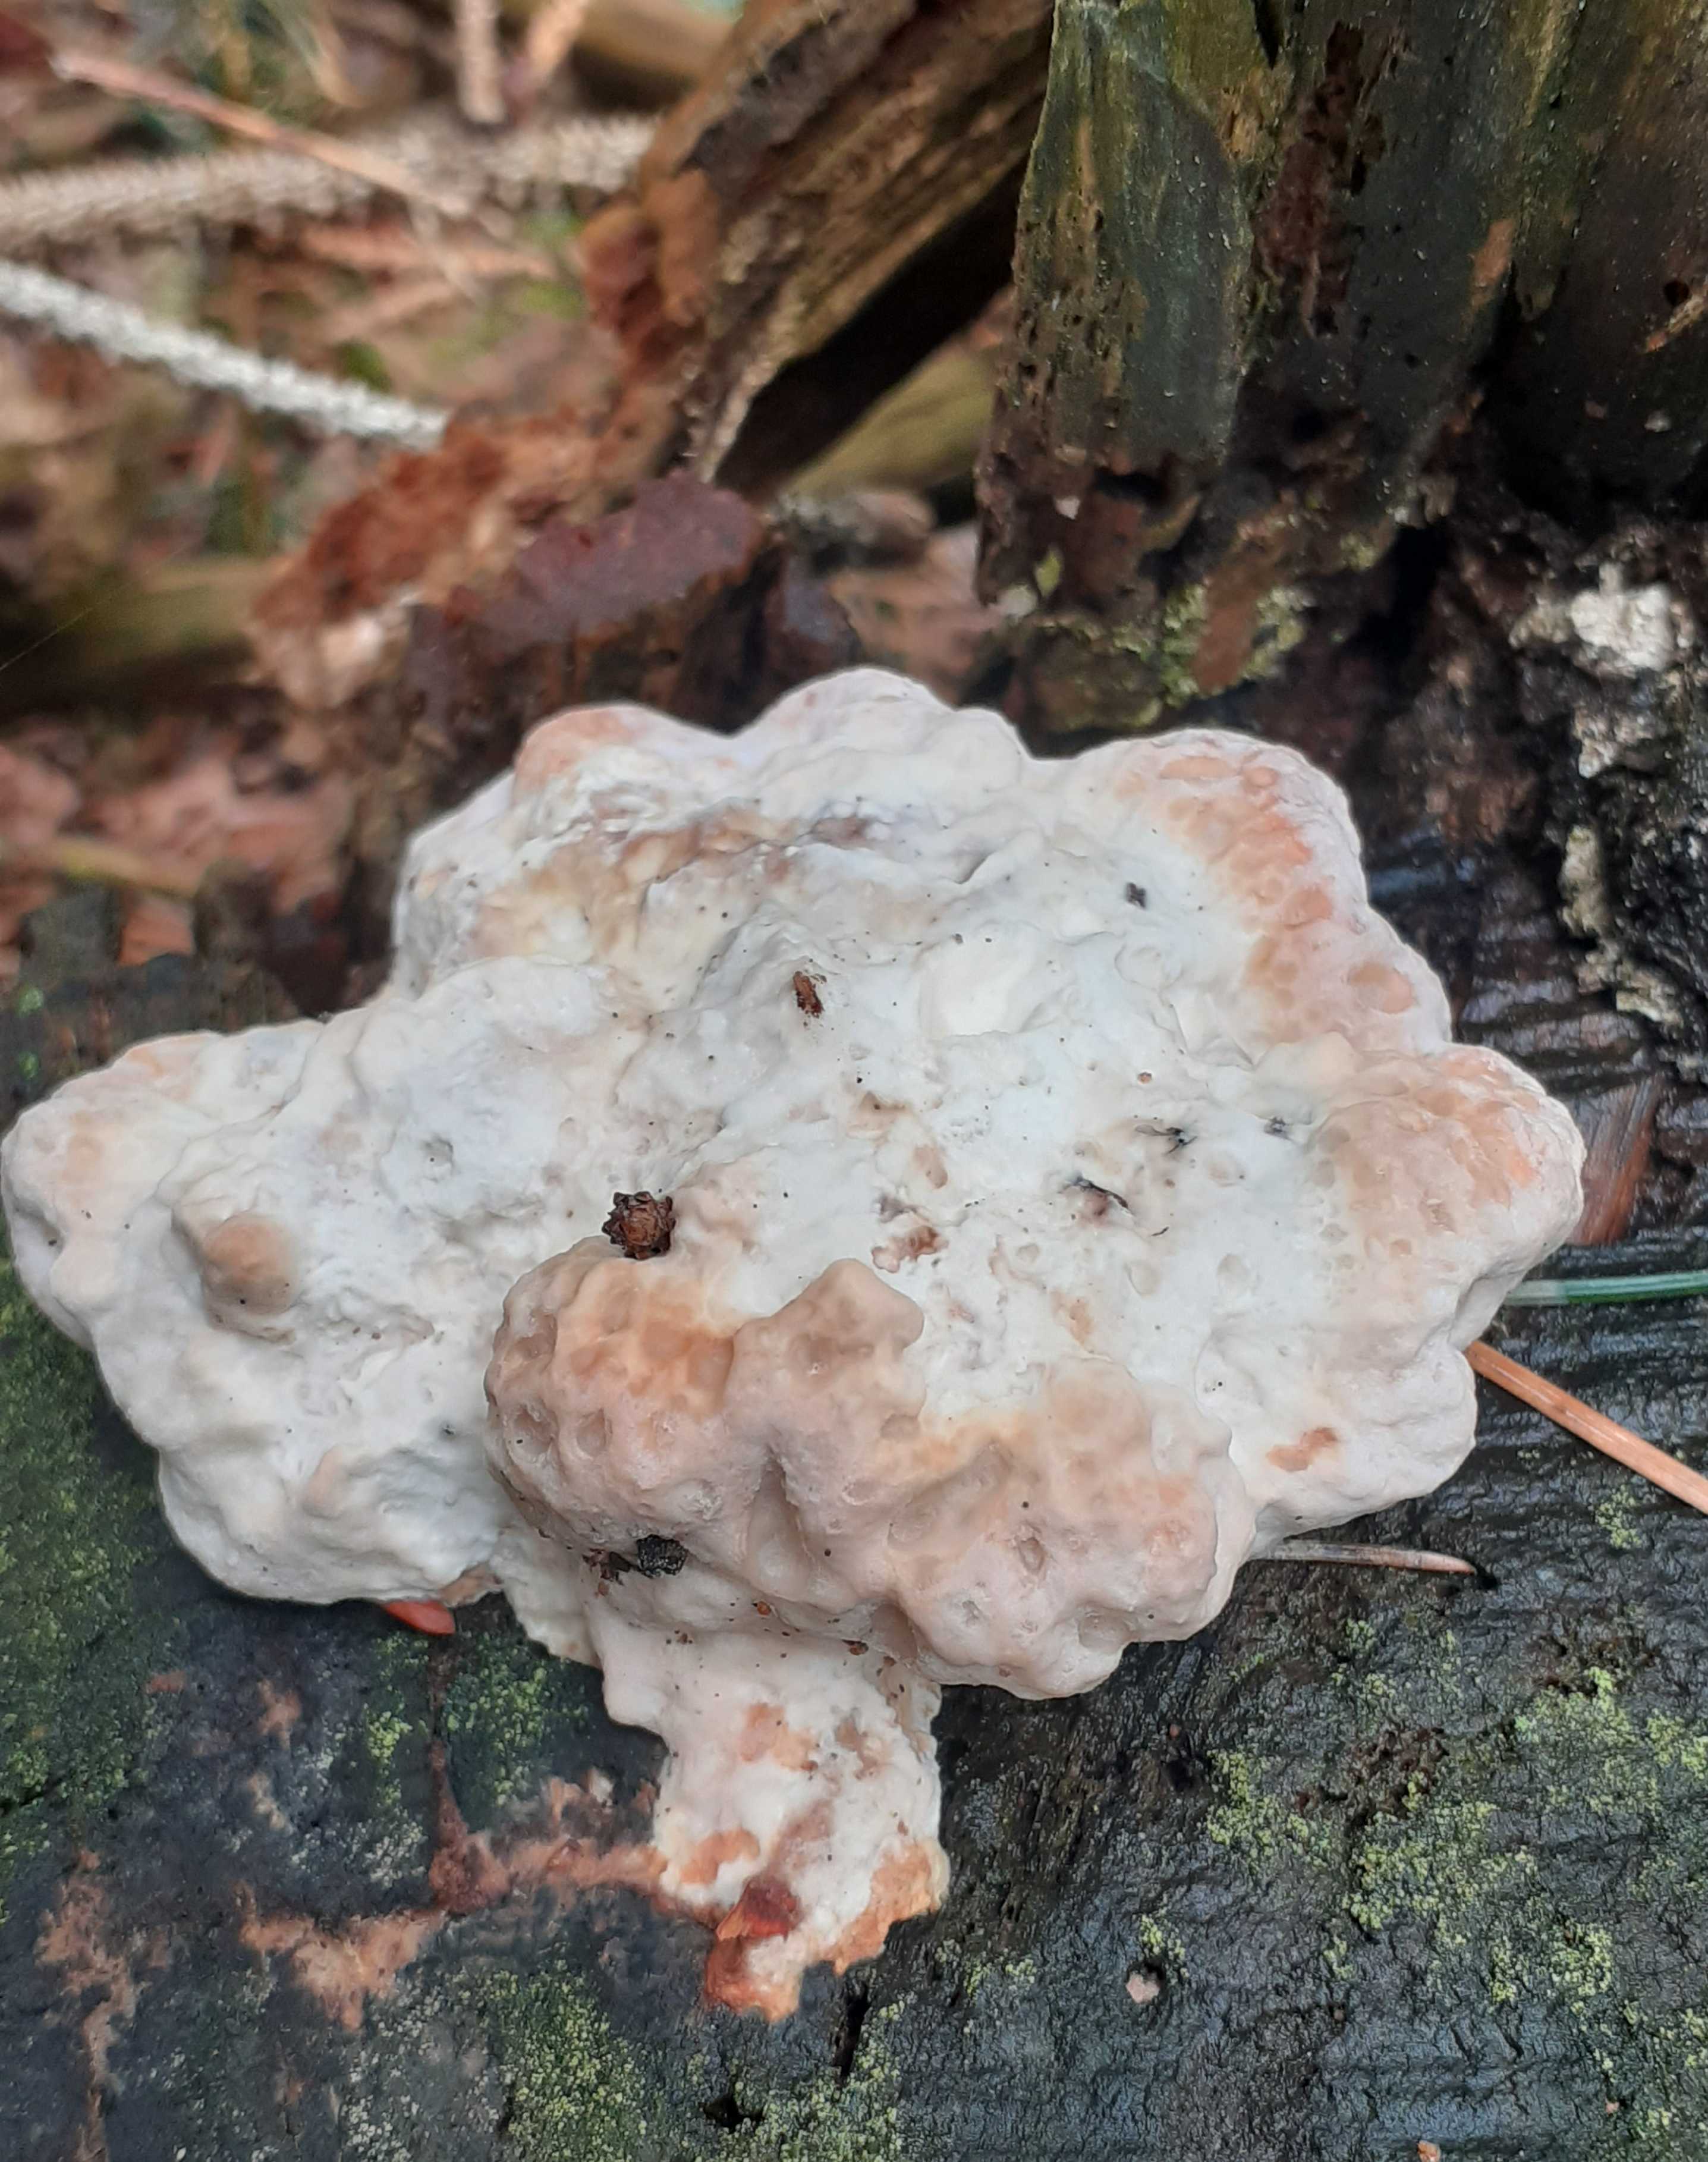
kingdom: Fungi
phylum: Basidiomycota
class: Agaricomycetes
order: Polyporales
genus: Calcipostia
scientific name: Calcipostia guttulata
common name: dråbe-kødporesvamp
